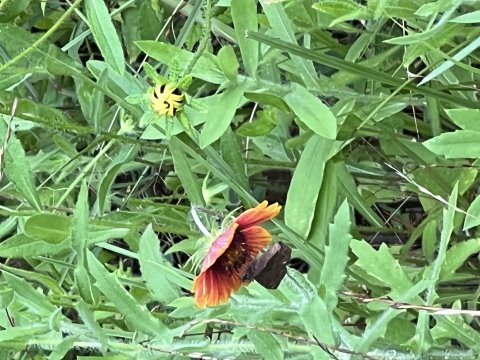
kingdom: Animalia
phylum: Arthropoda
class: Insecta
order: Lepidoptera
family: Hesperiidae
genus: Gesta
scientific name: Gesta
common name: Horace's Duskywing
